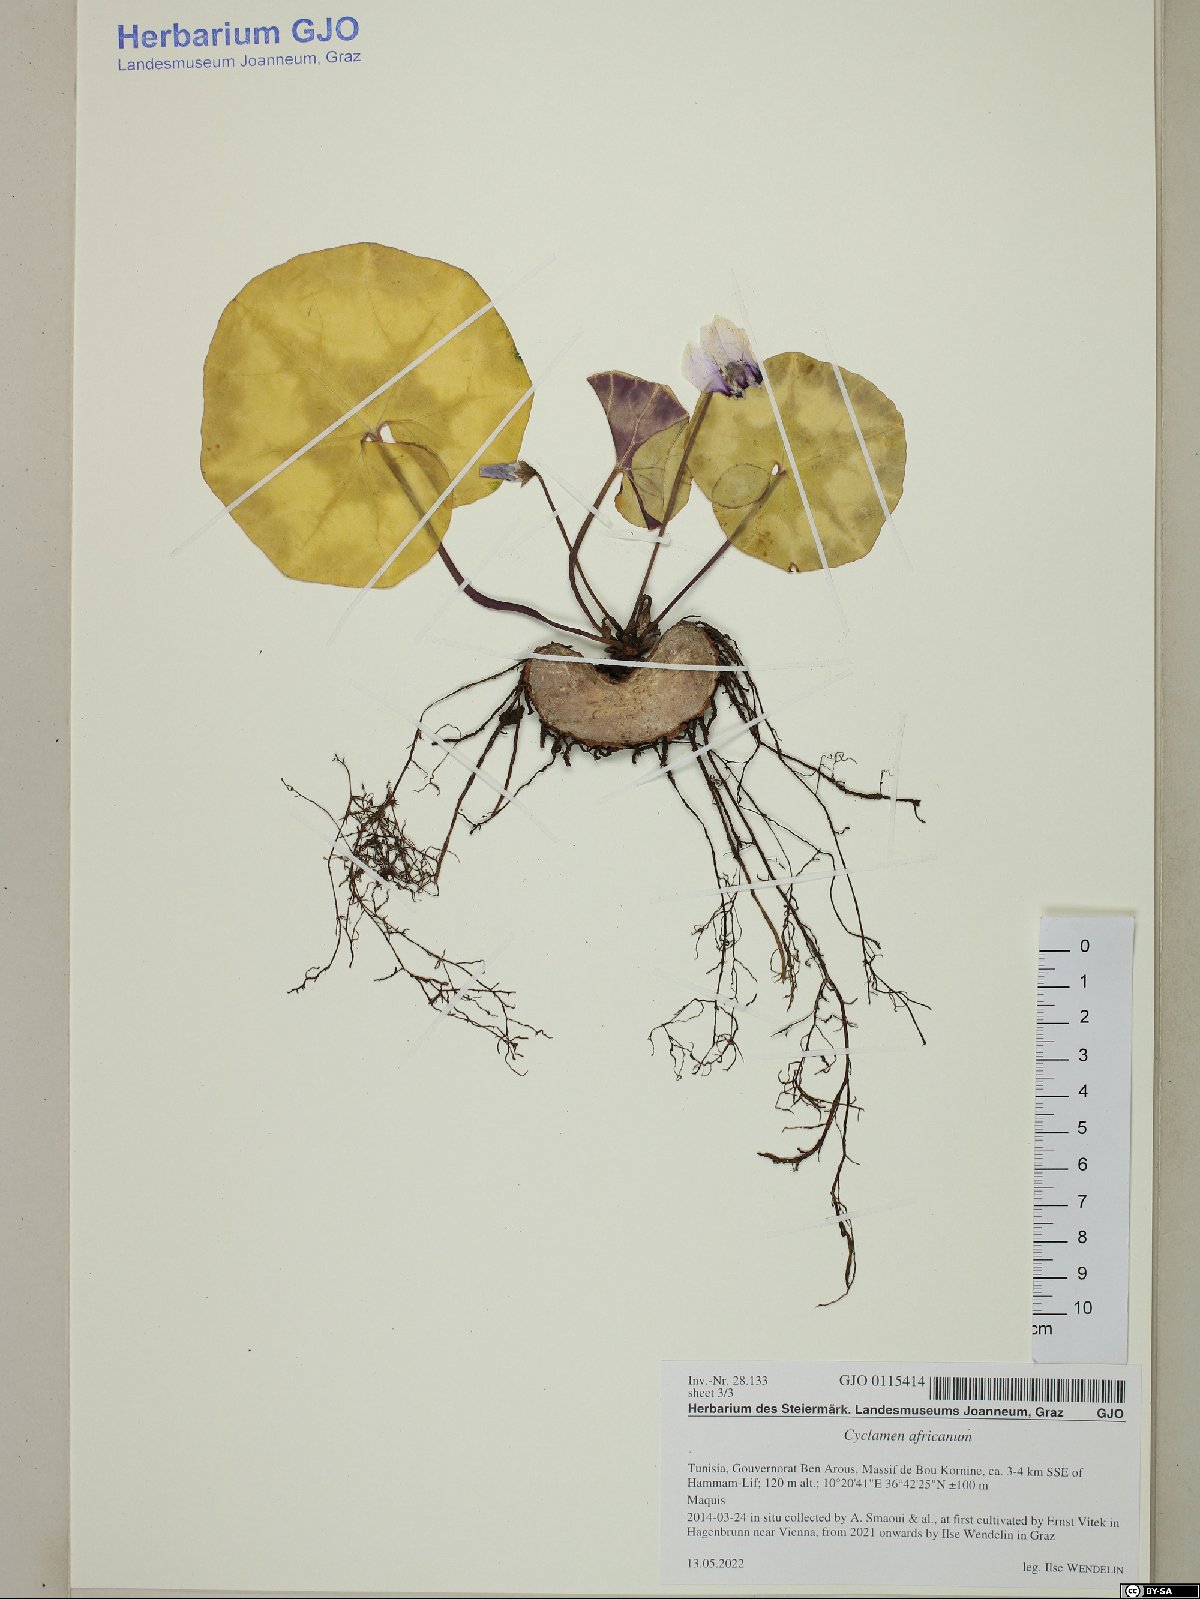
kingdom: Plantae
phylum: Tracheophyta
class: Magnoliopsida
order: Ericales
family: Primulaceae
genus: Cyclamen
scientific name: Cyclamen africanum
